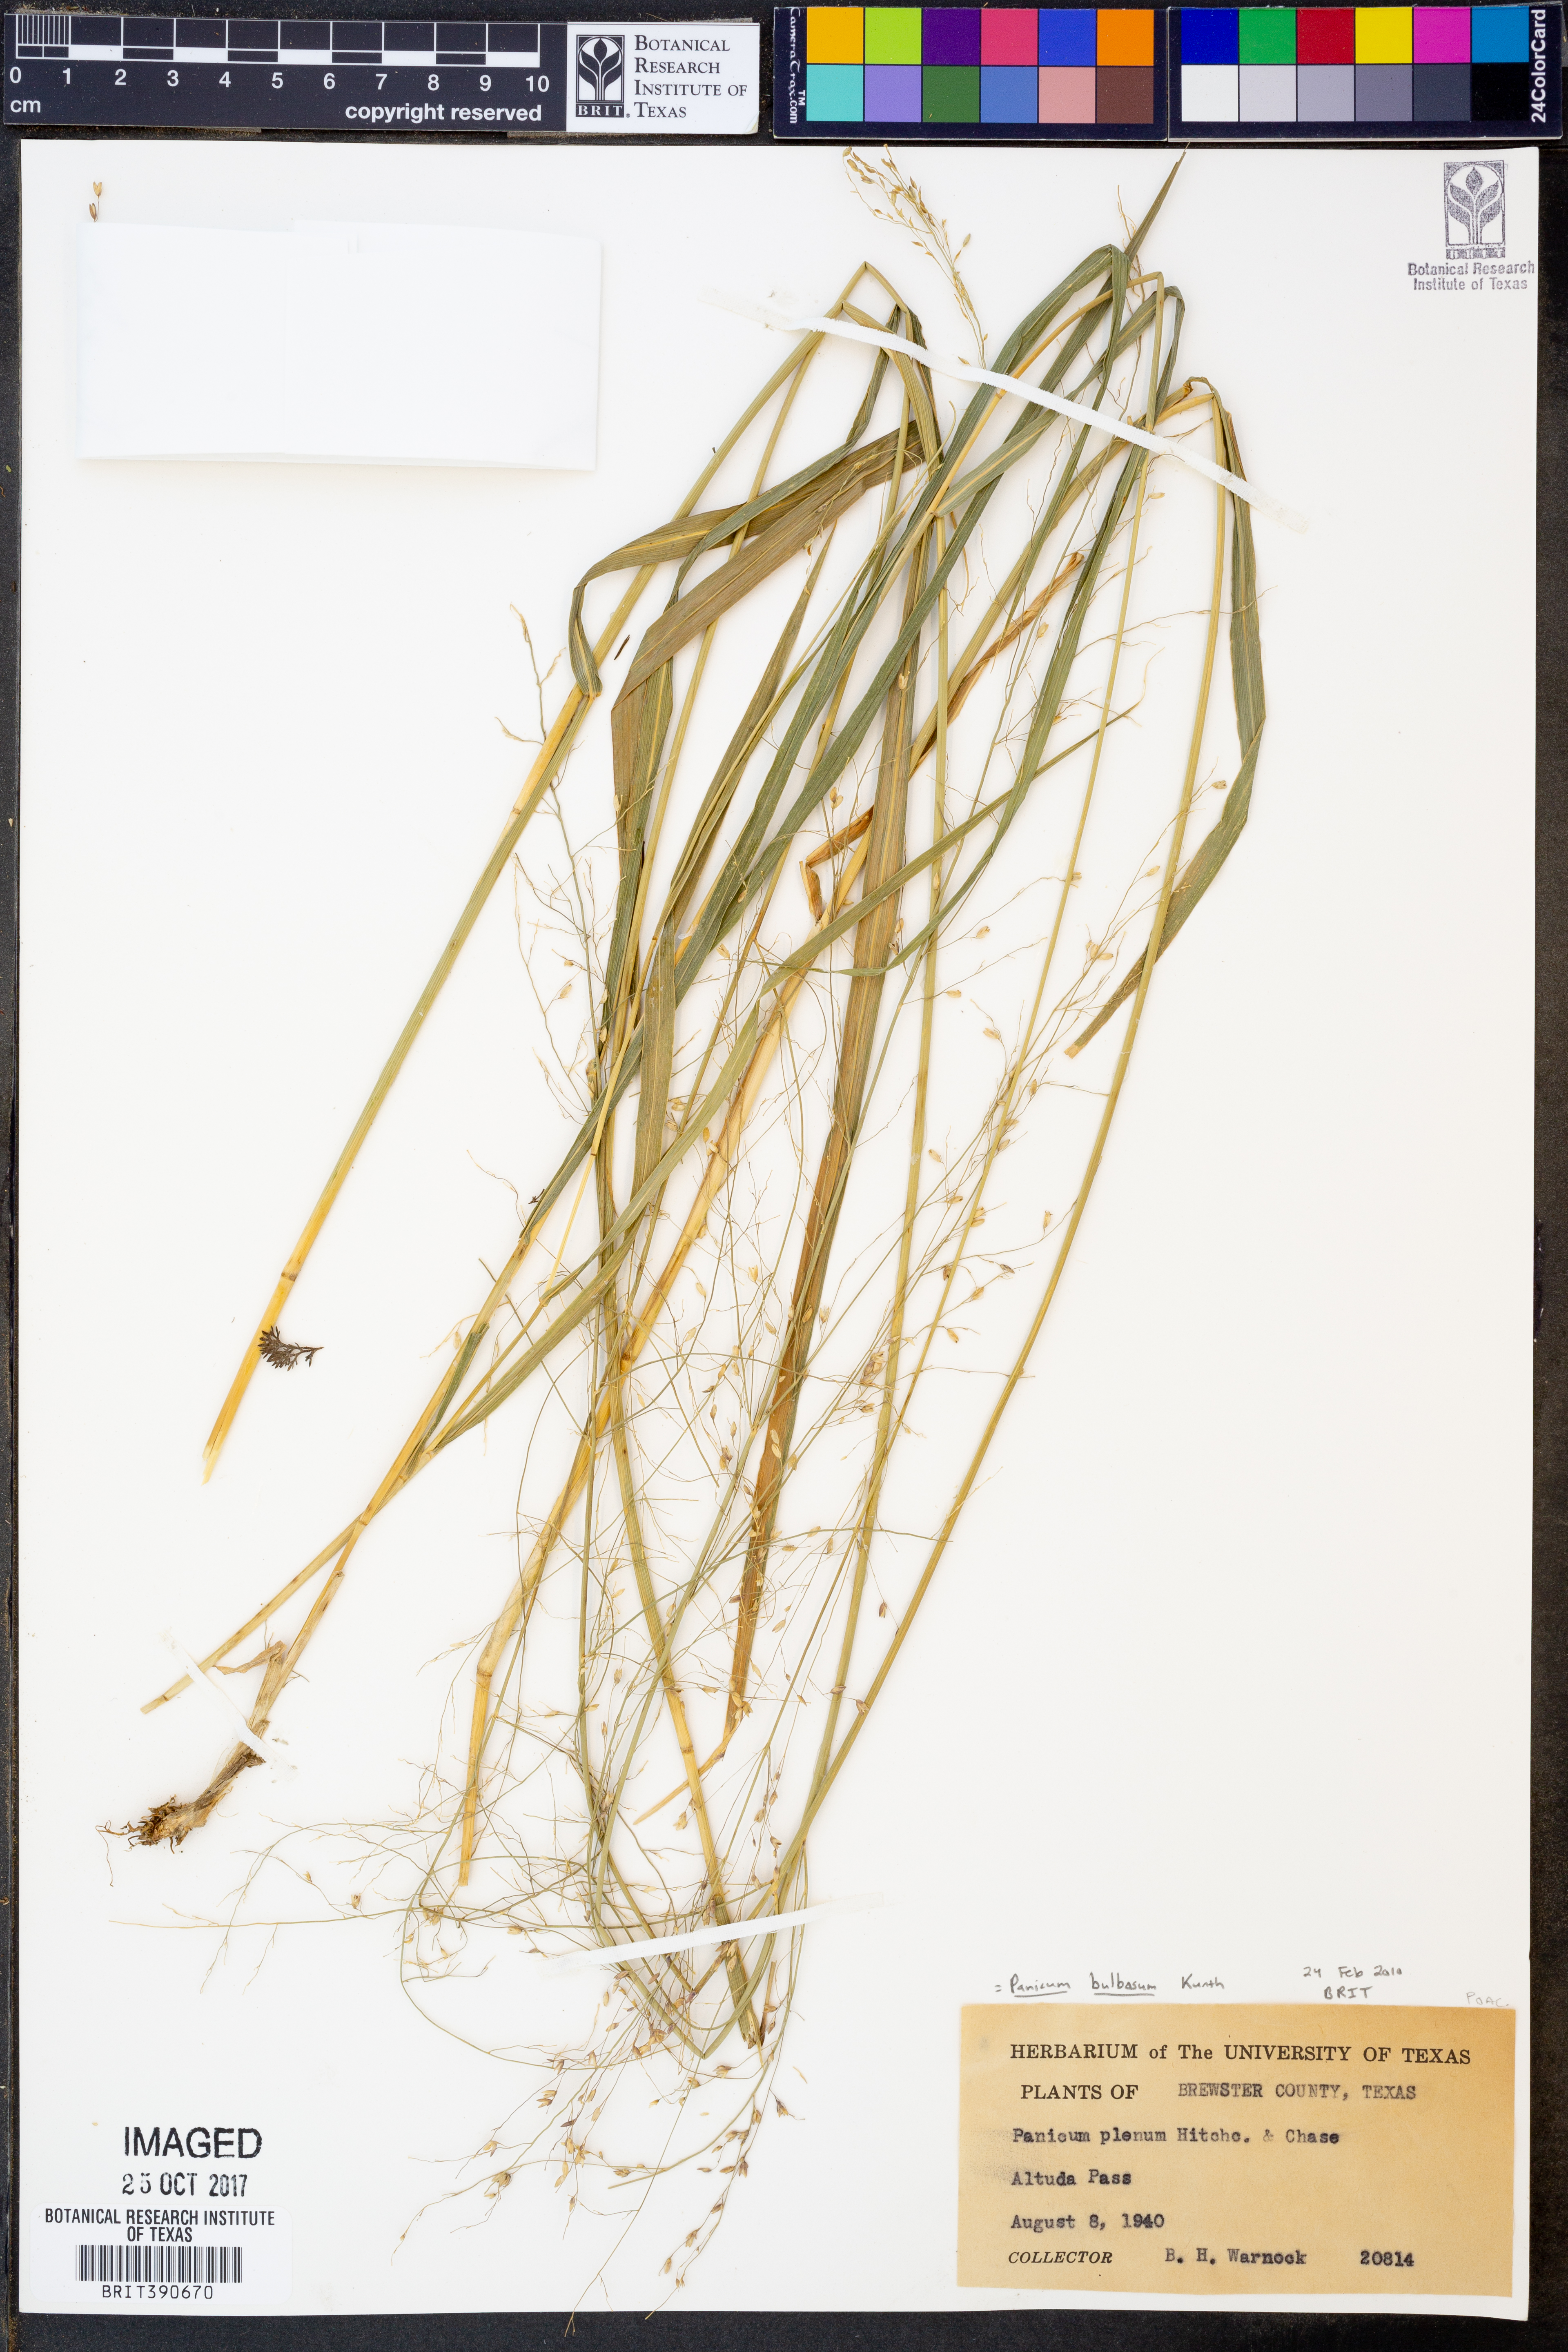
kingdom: Plantae
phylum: Tracheophyta
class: Liliopsida
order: Poales
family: Poaceae
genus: Zuloagaea
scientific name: Zuloagaea bulbosa
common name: Canyon panic grass
